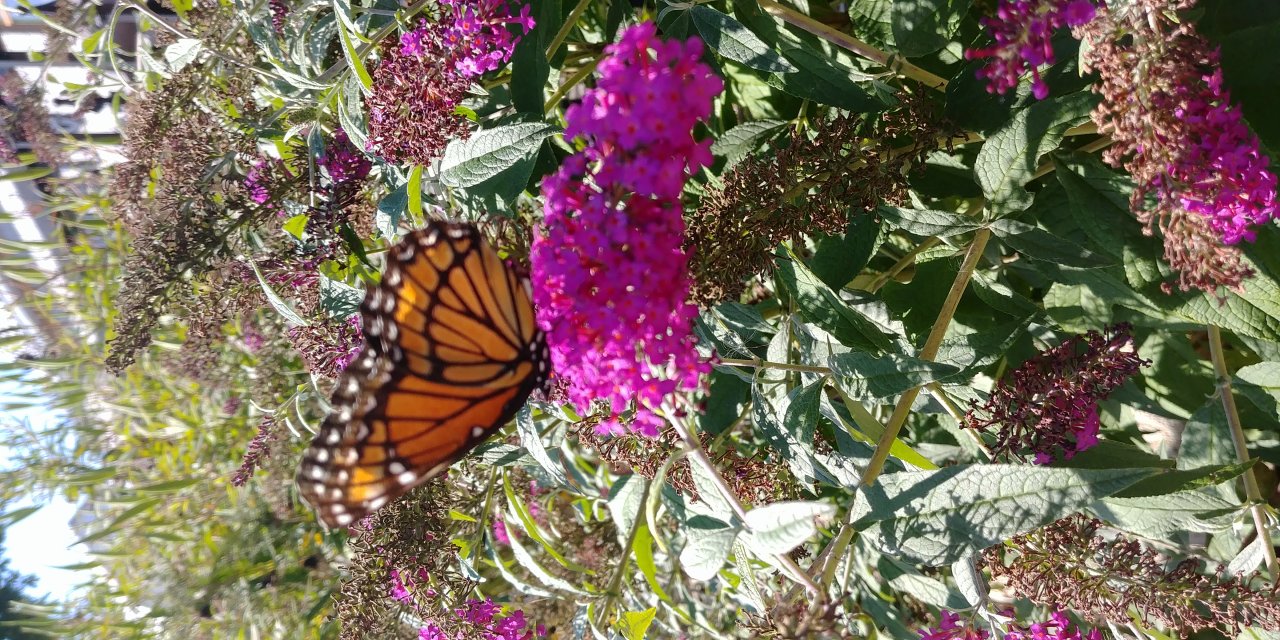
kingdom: Animalia
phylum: Arthropoda
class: Insecta
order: Lepidoptera
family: Nymphalidae
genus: Limenitis
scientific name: Limenitis archippus
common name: Viceroy
